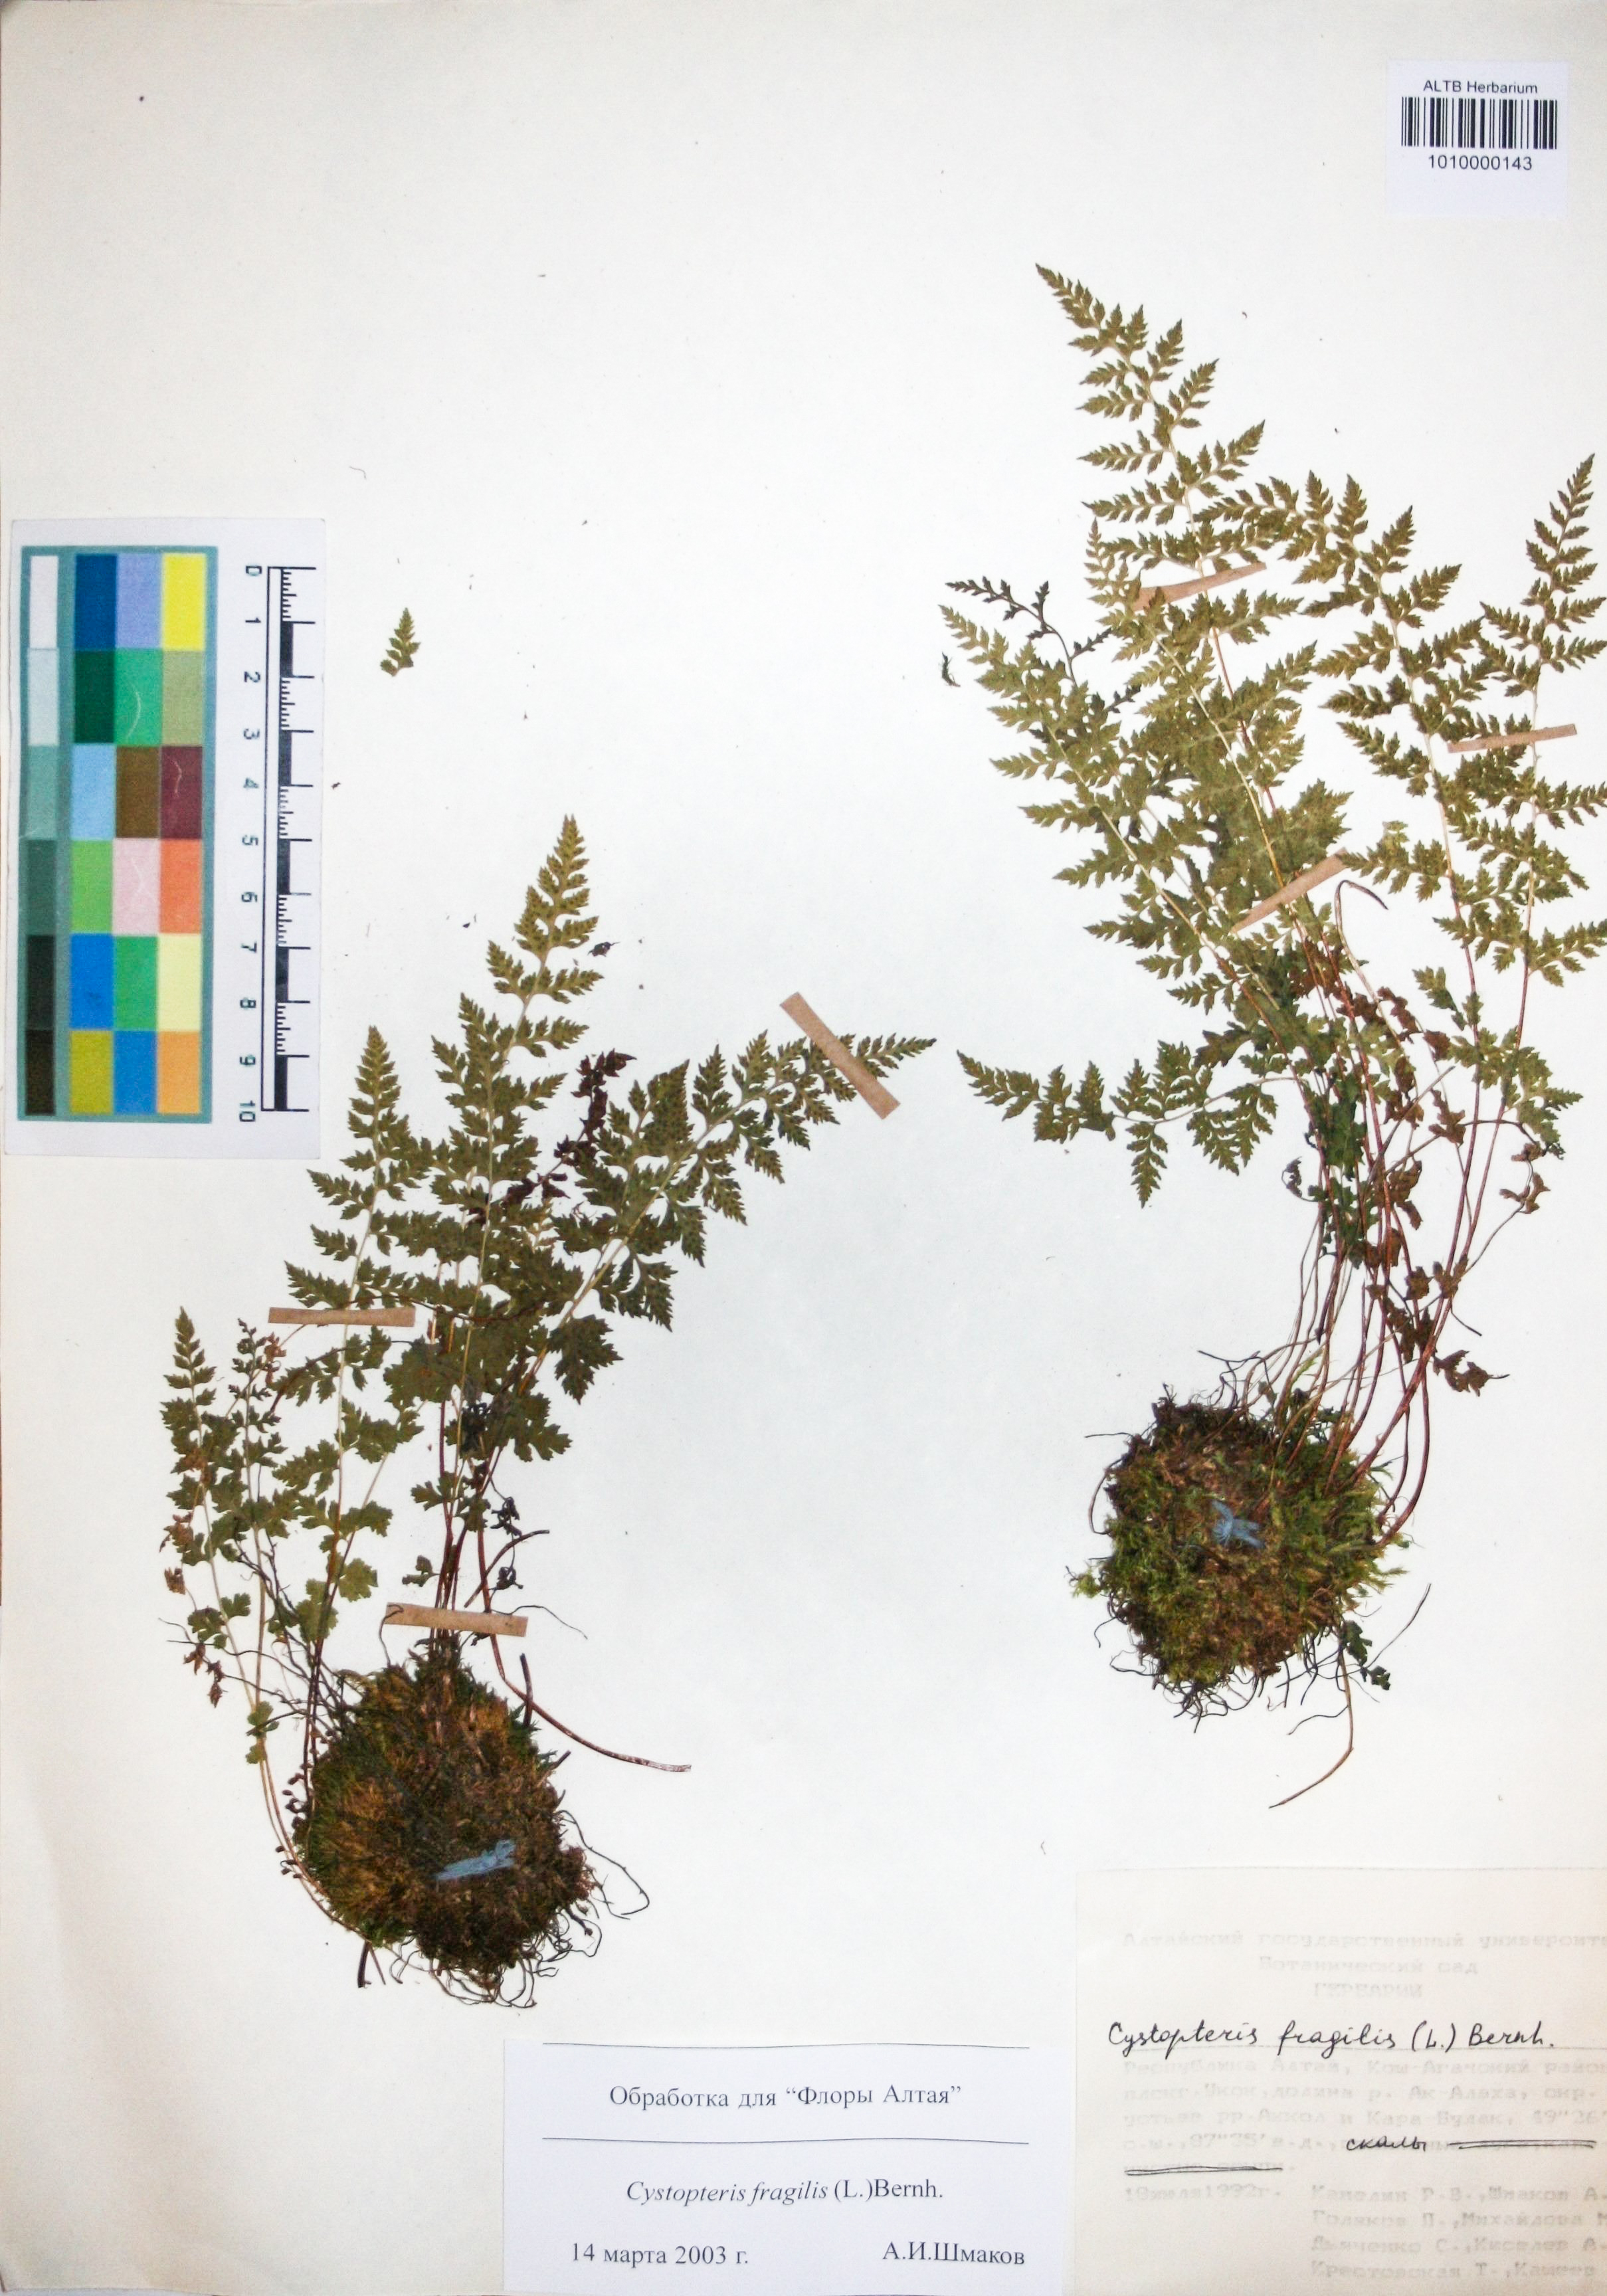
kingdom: Plantae
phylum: Tracheophyta
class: Polypodiopsida
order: Polypodiales
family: Cystopteridaceae
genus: Cystopteris
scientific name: Cystopteris fragilis
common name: Brittle bladder fern
